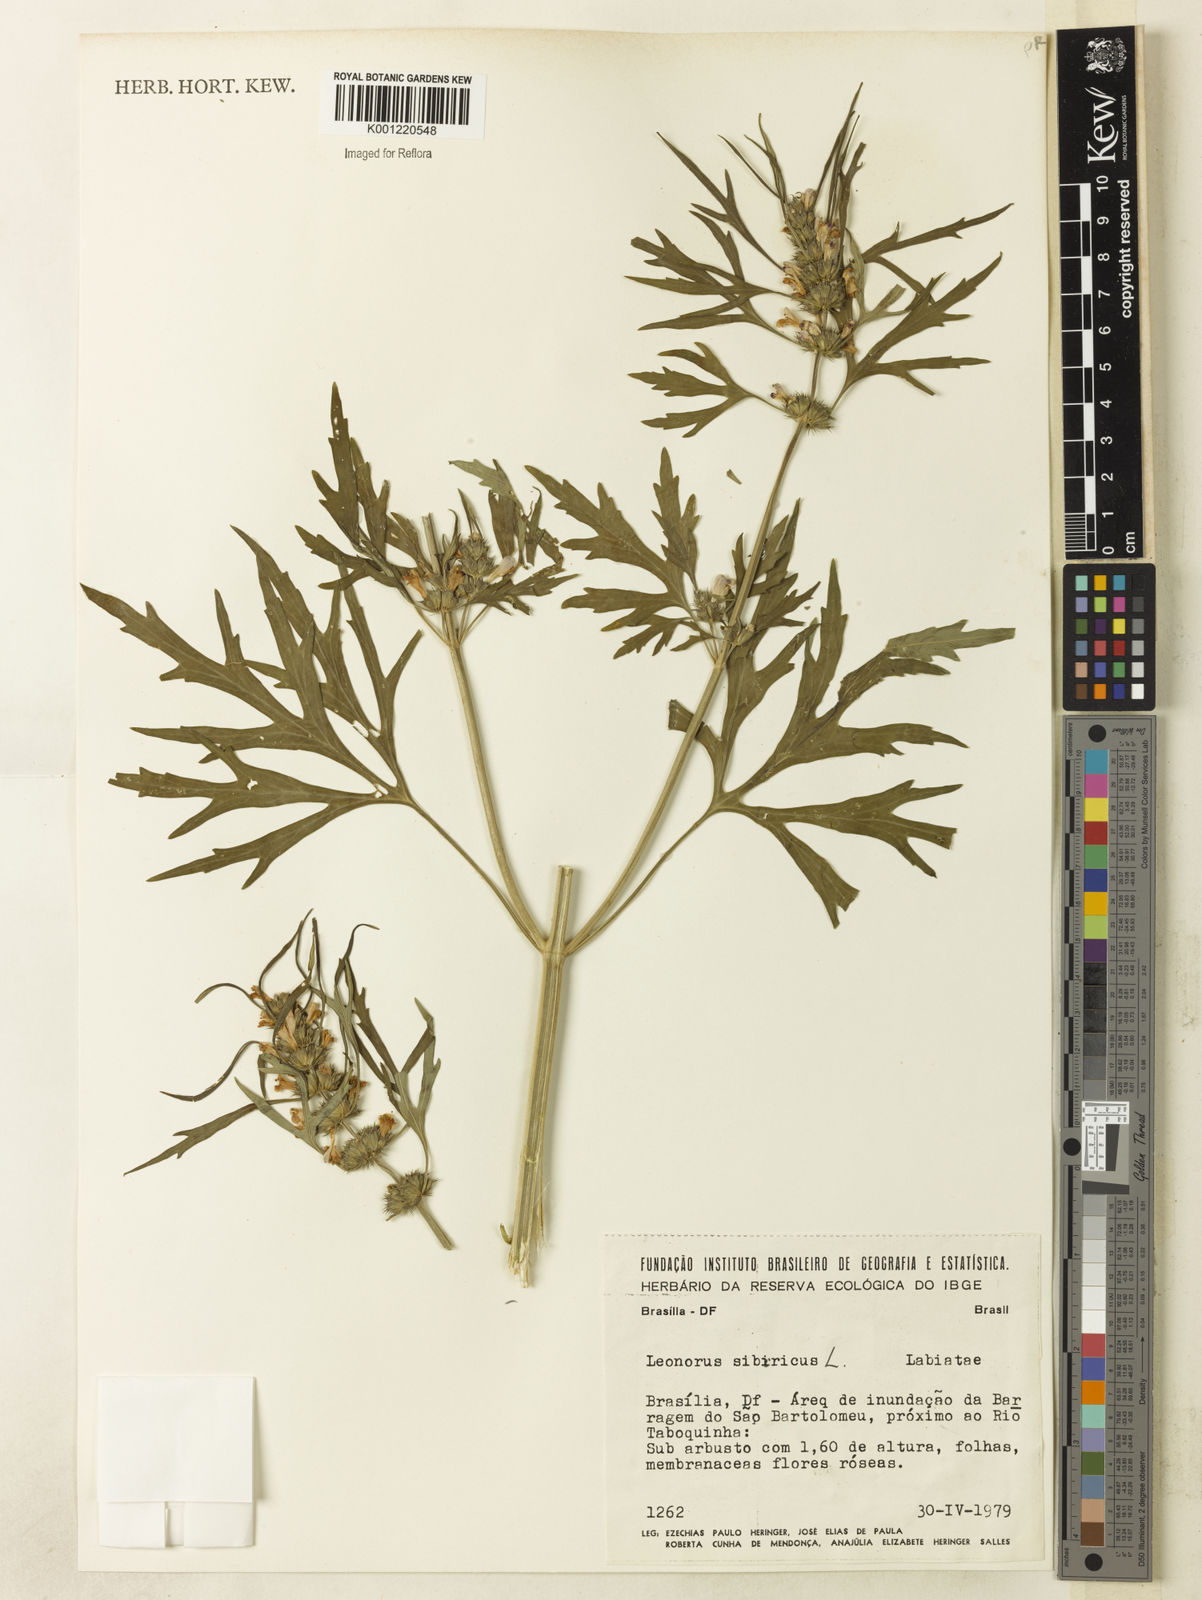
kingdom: Plantae
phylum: Tracheophyta
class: Magnoliopsida
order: Lamiales
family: Lamiaceae
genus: Leonurus
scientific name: Leonurus japonicus
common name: Honeyweed
